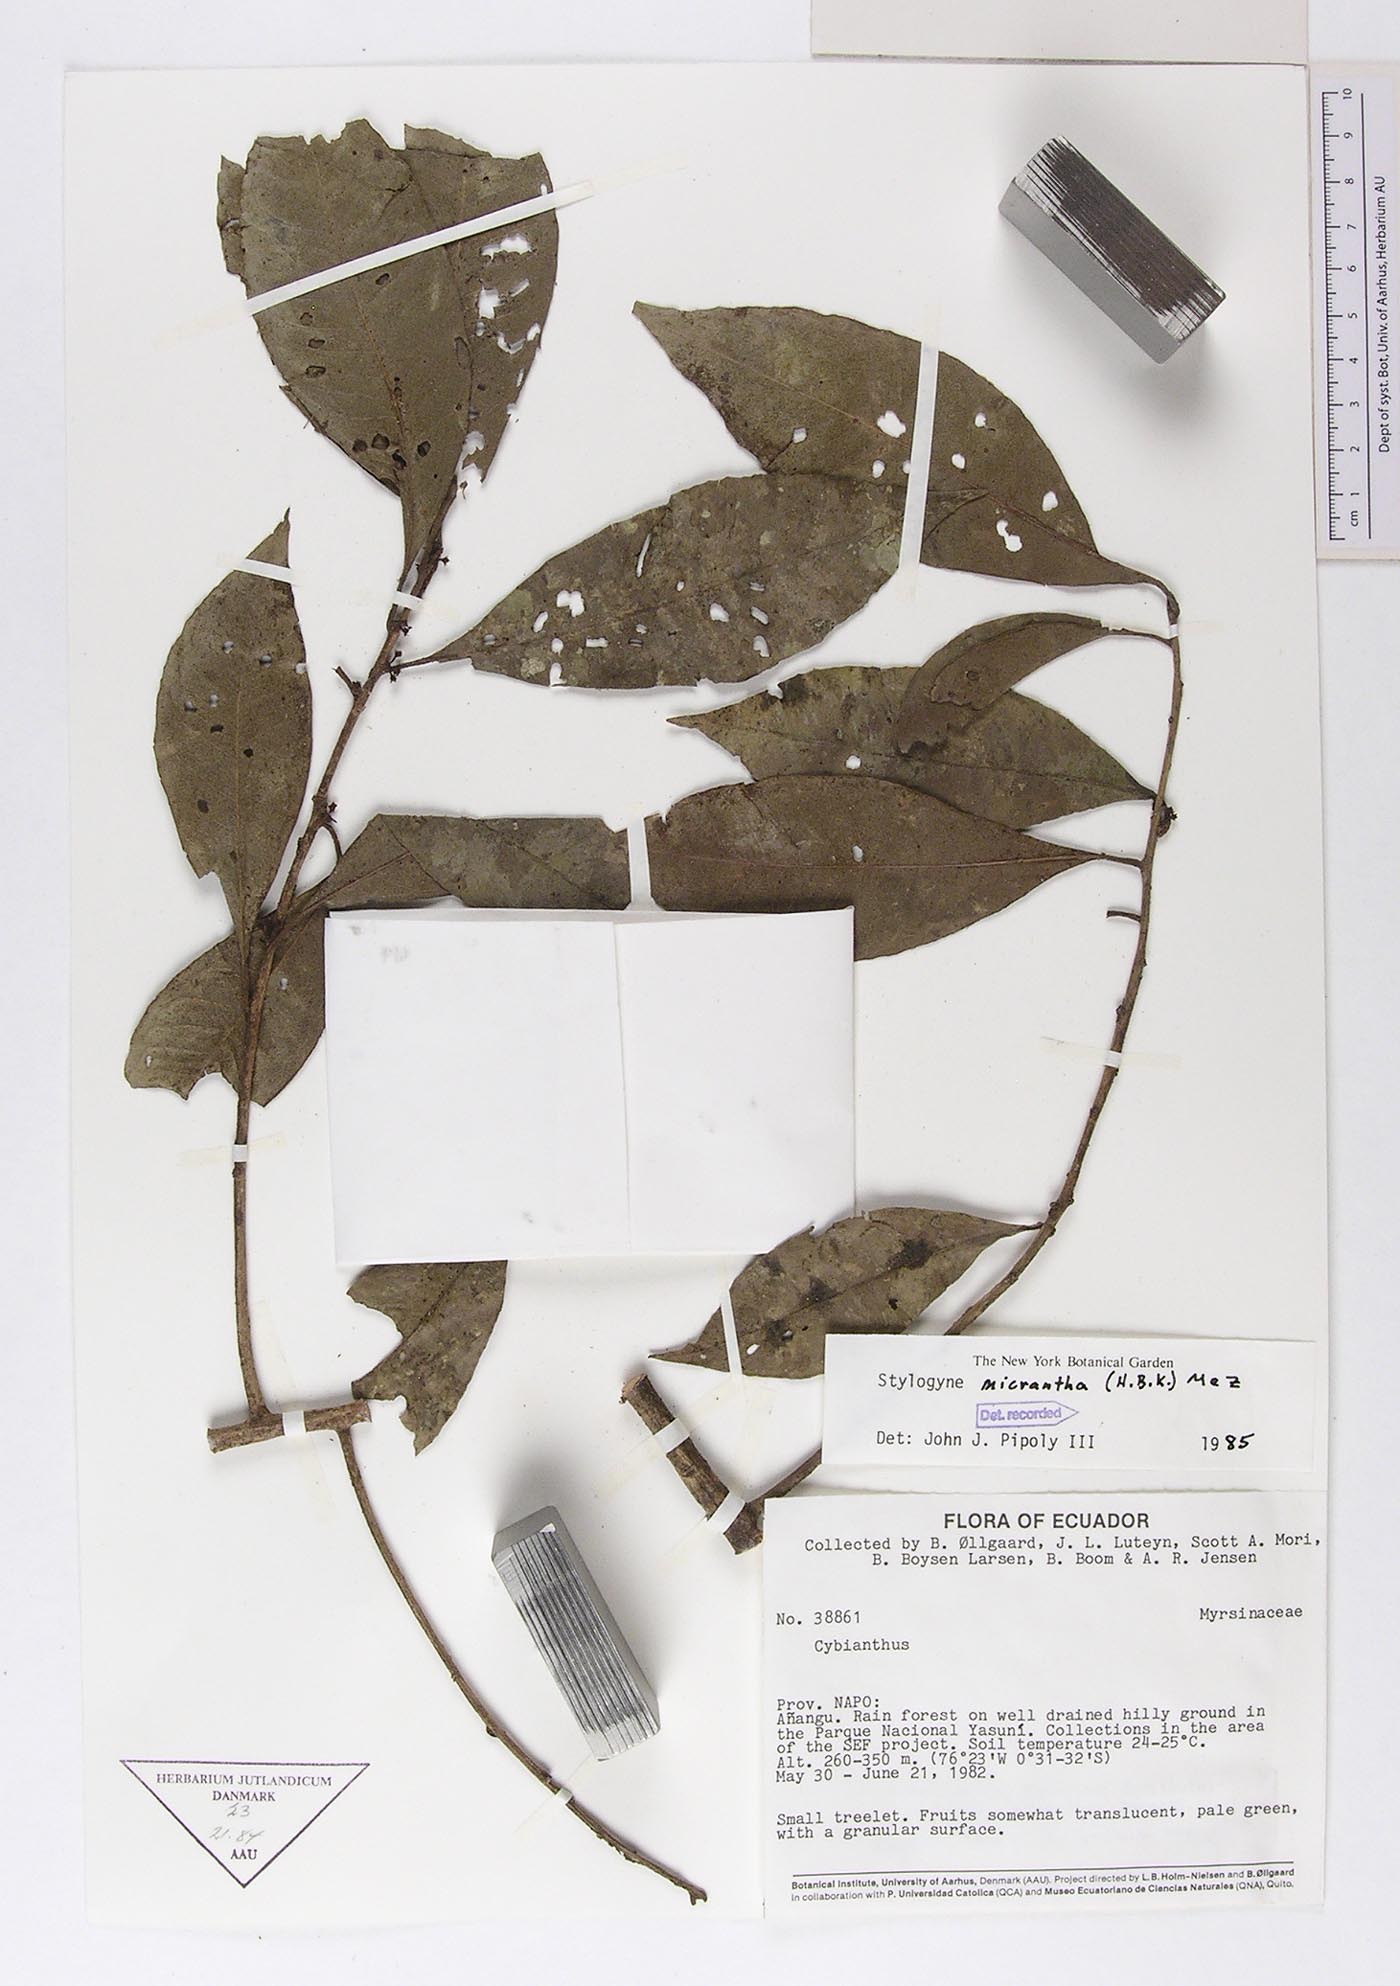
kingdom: Plantae
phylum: Tracheophyta
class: Magnoliopsida
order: Ericales
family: Primulaceae
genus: Stylogyne
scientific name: Stylogyne micrantha
